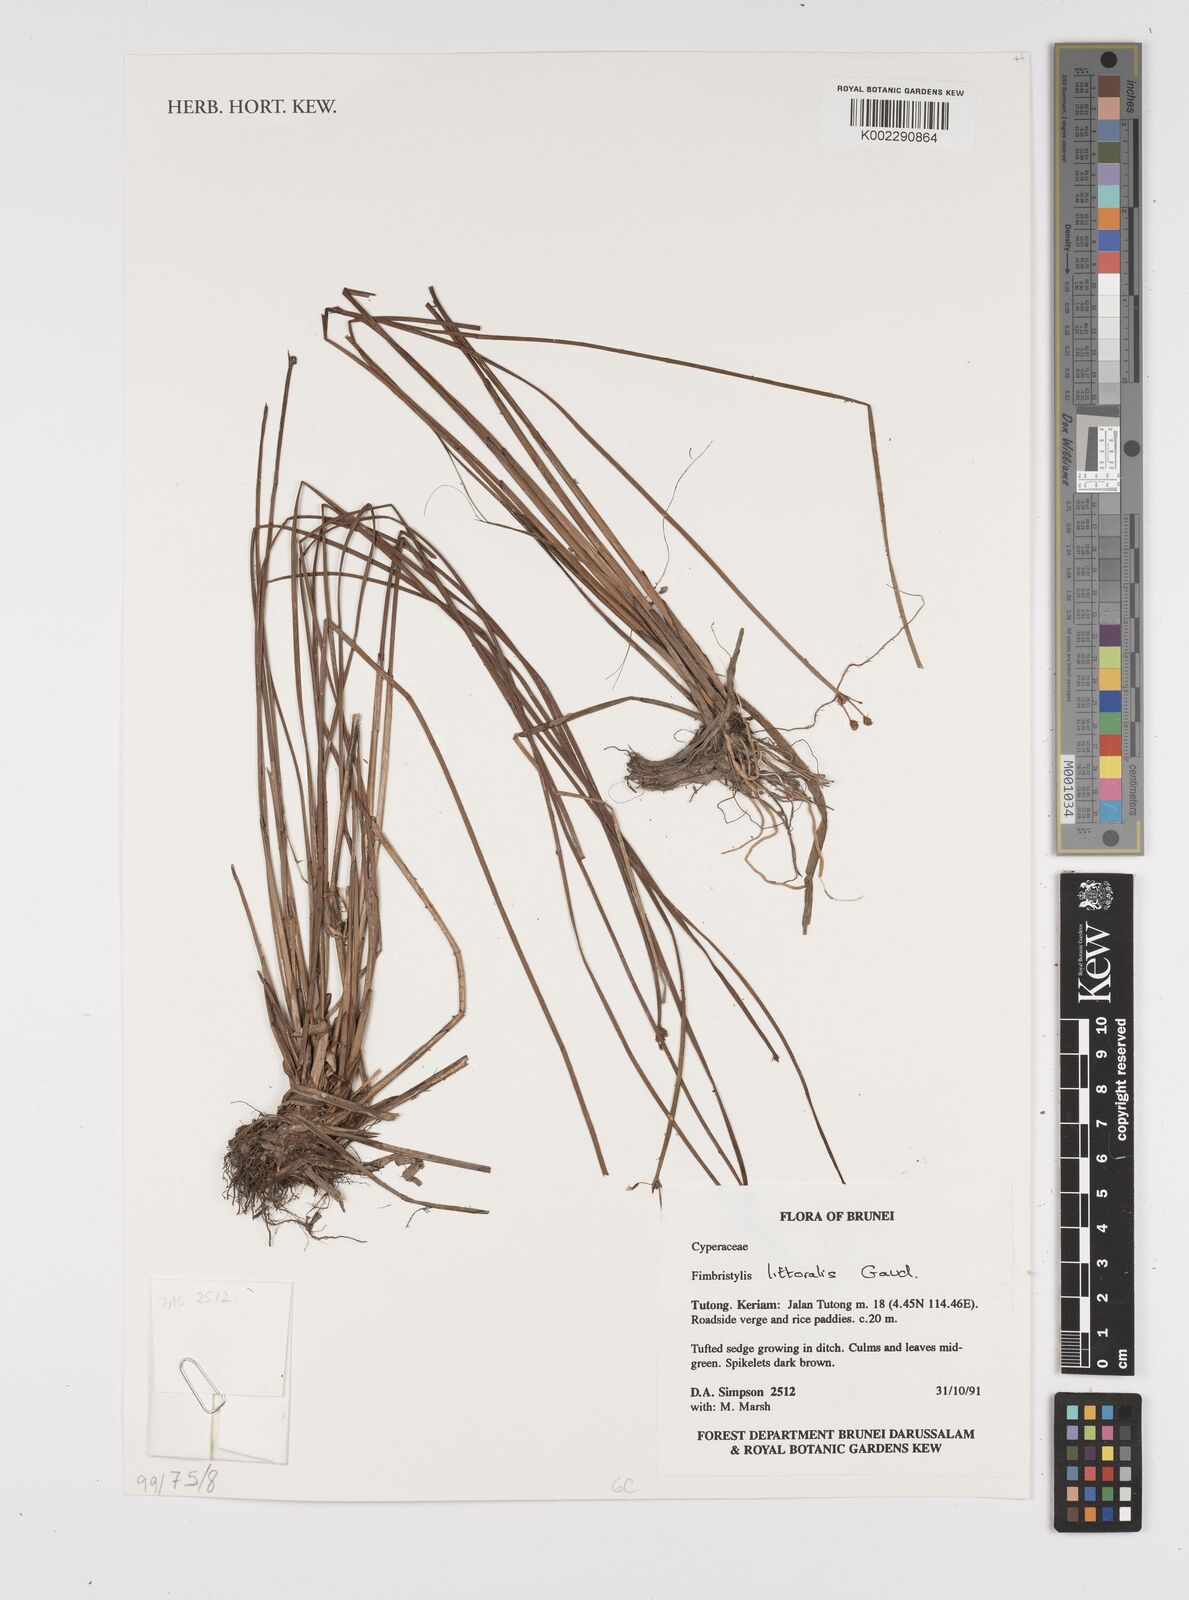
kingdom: Plantae
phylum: Tracheophyta
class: Liliopsida
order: Poales
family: Cyperaceae
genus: Fimbristylis
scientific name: Fimbristylis littoralis
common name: Fimbry
